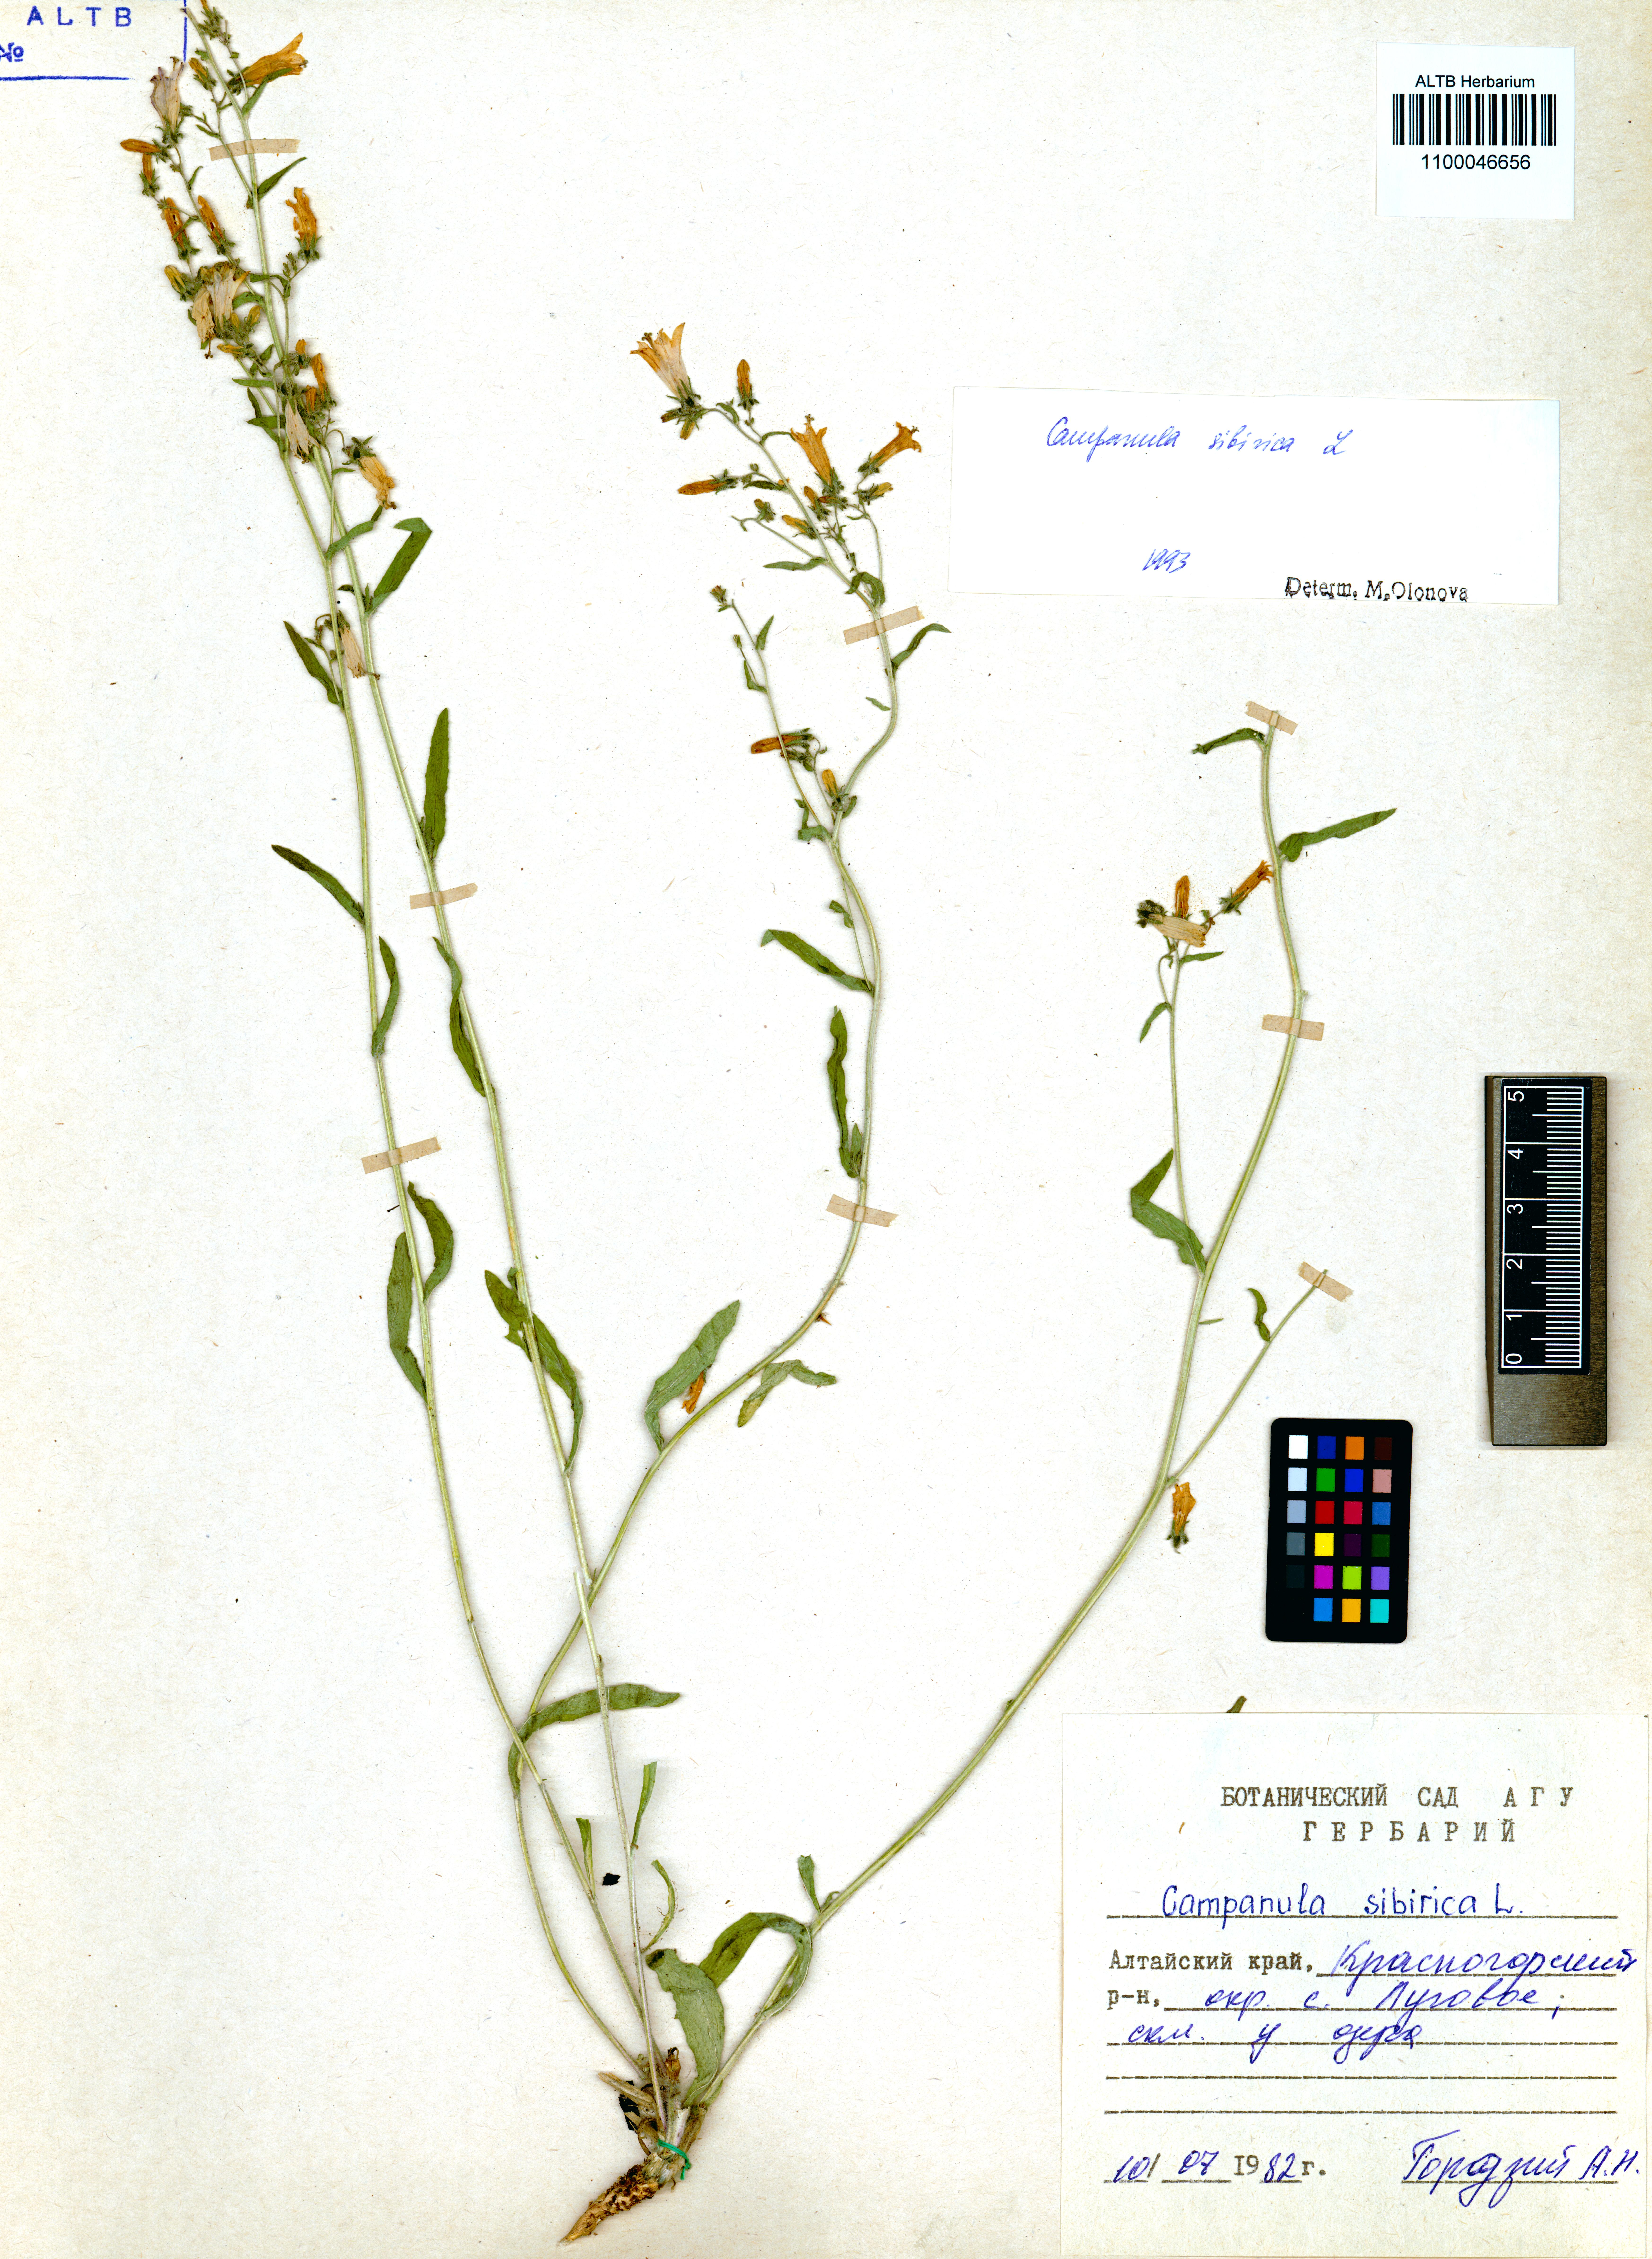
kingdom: Plantae
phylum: Tracheophyta
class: Magnoliopsida
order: Asterales
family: Campanulaceae
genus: Campanula
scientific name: Campanula sibirica
